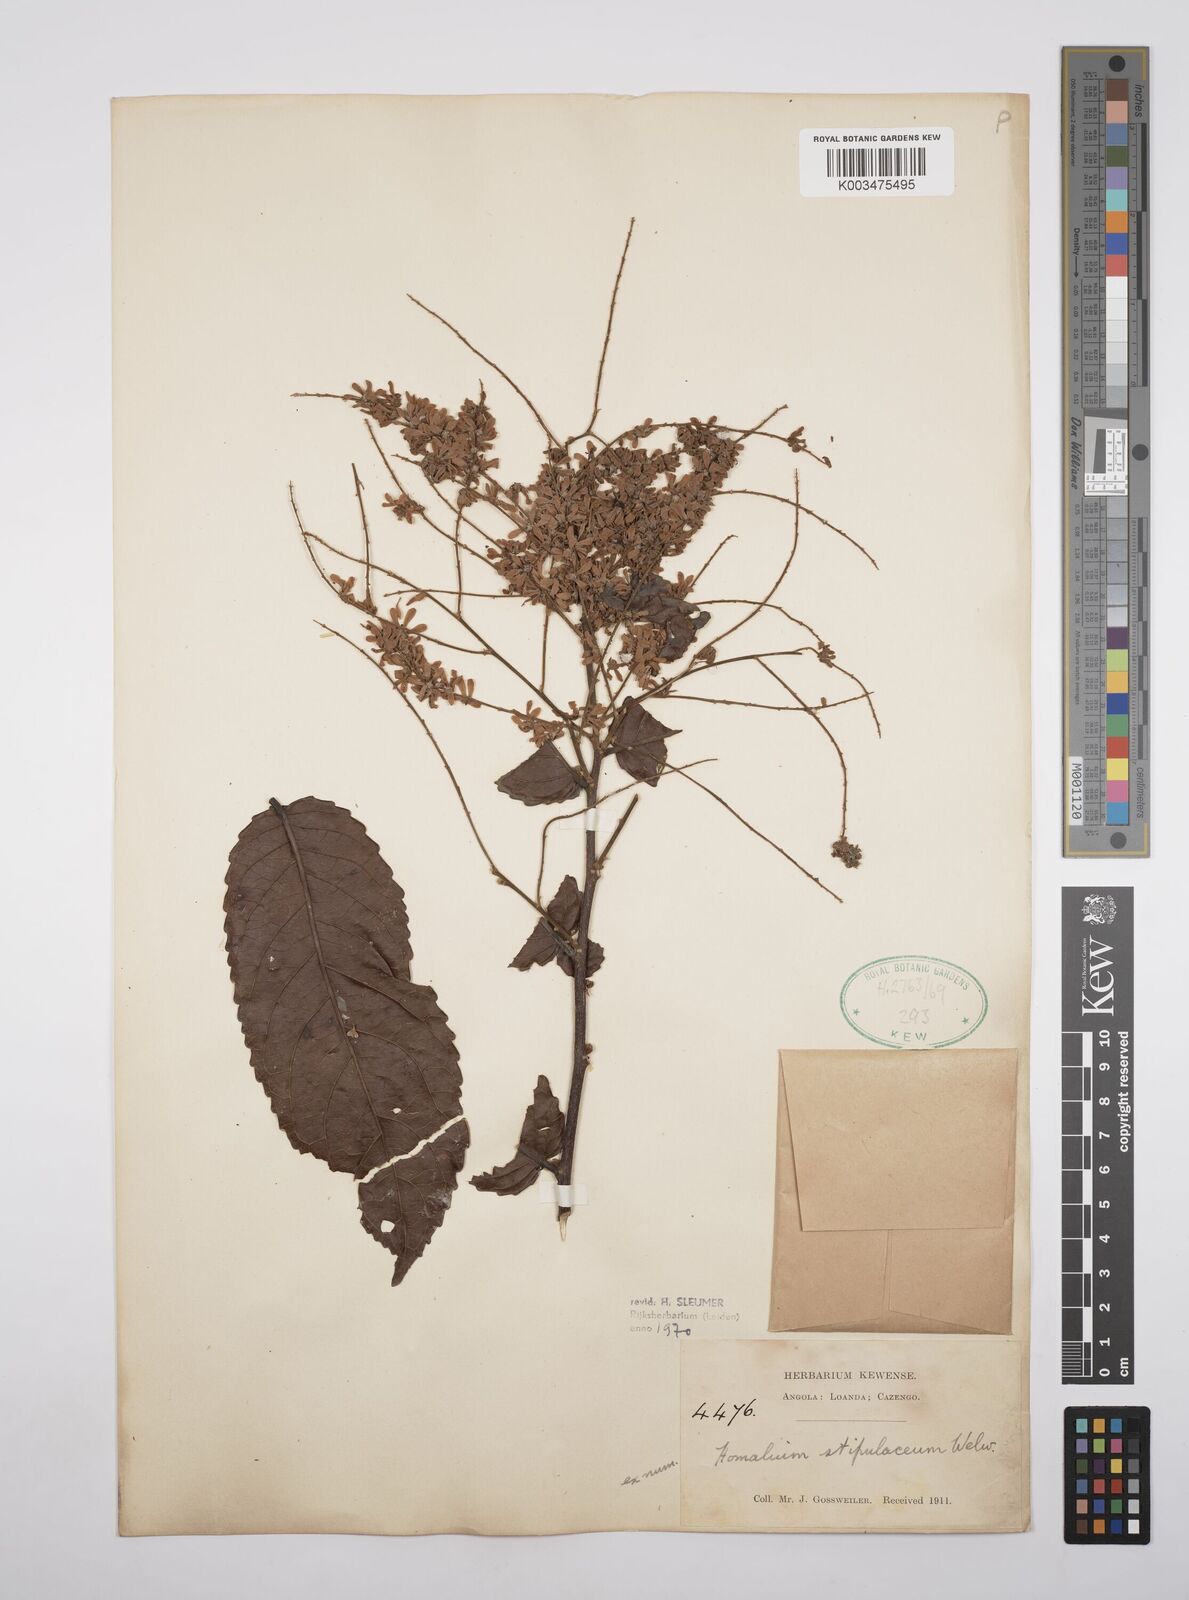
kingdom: Plantae
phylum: Tracheophyta
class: Magnoliopsida
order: Malpighiales
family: Salicaceae
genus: Homalium
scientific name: Homalium stipulaceum
